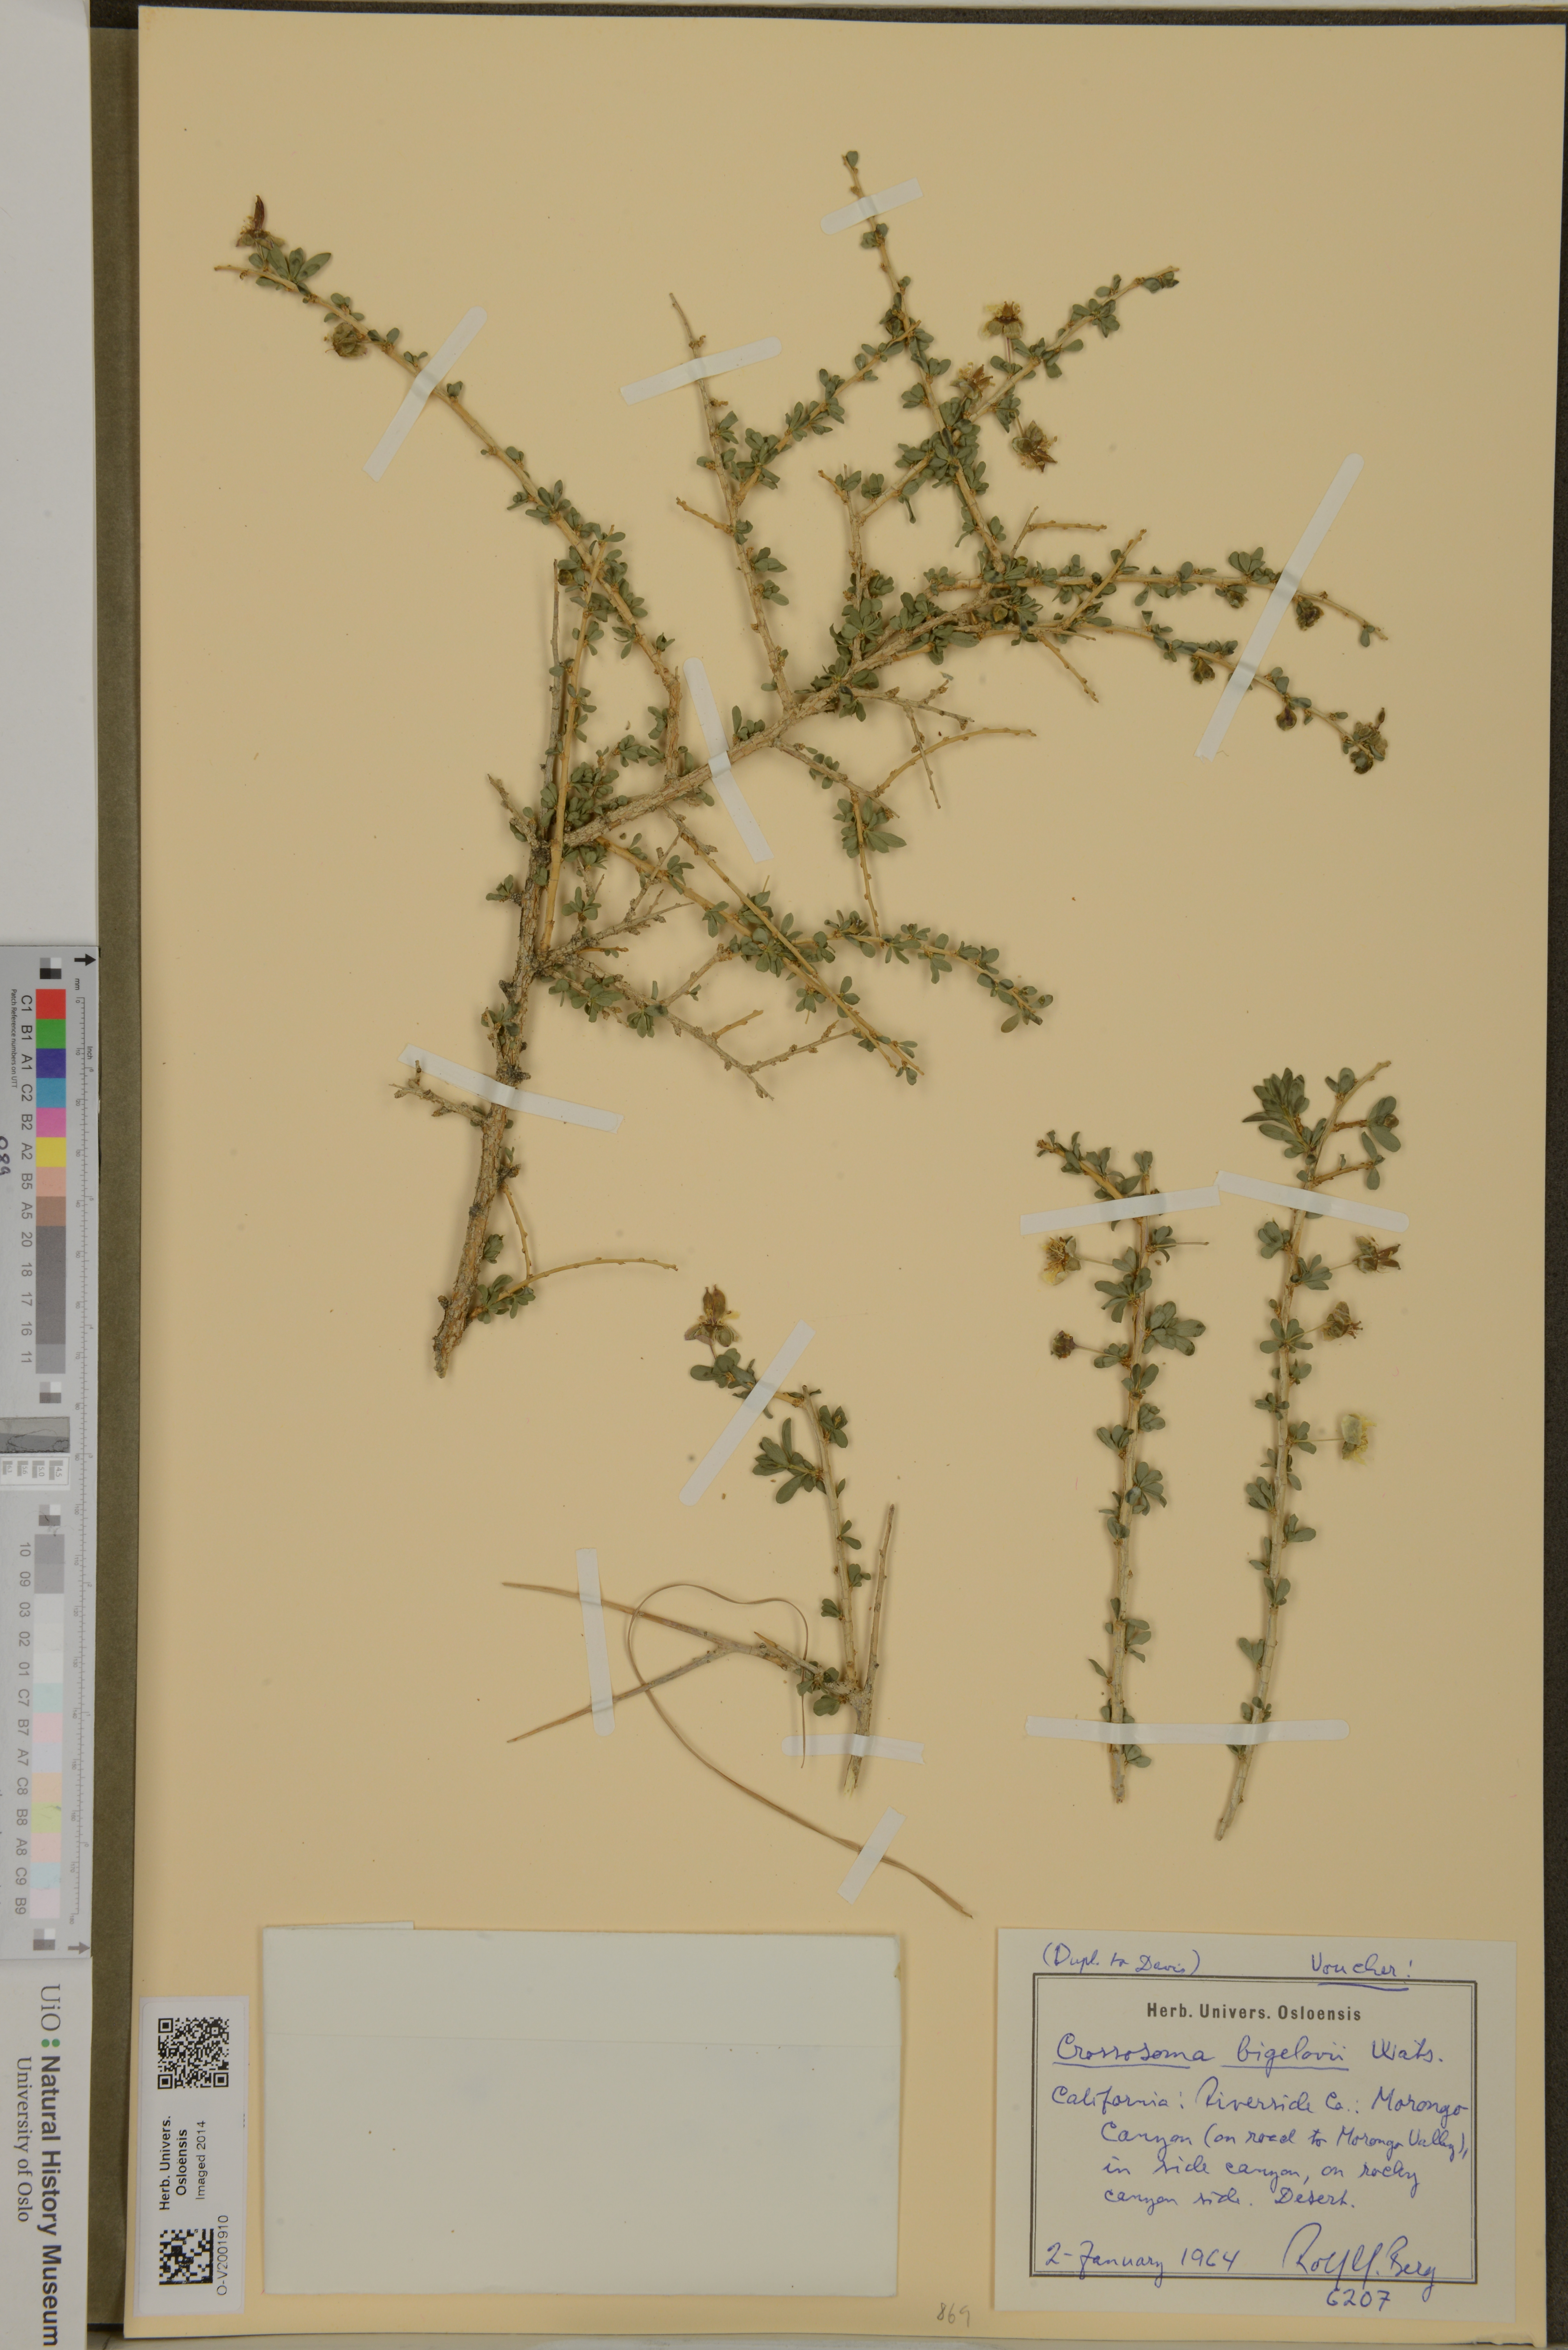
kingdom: Plantae
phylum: Tracheophyta
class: Magnoliopsida
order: Crossosomatales
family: Crossosomataceae
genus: Crossosoma
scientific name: Crossosoma bigelovii
